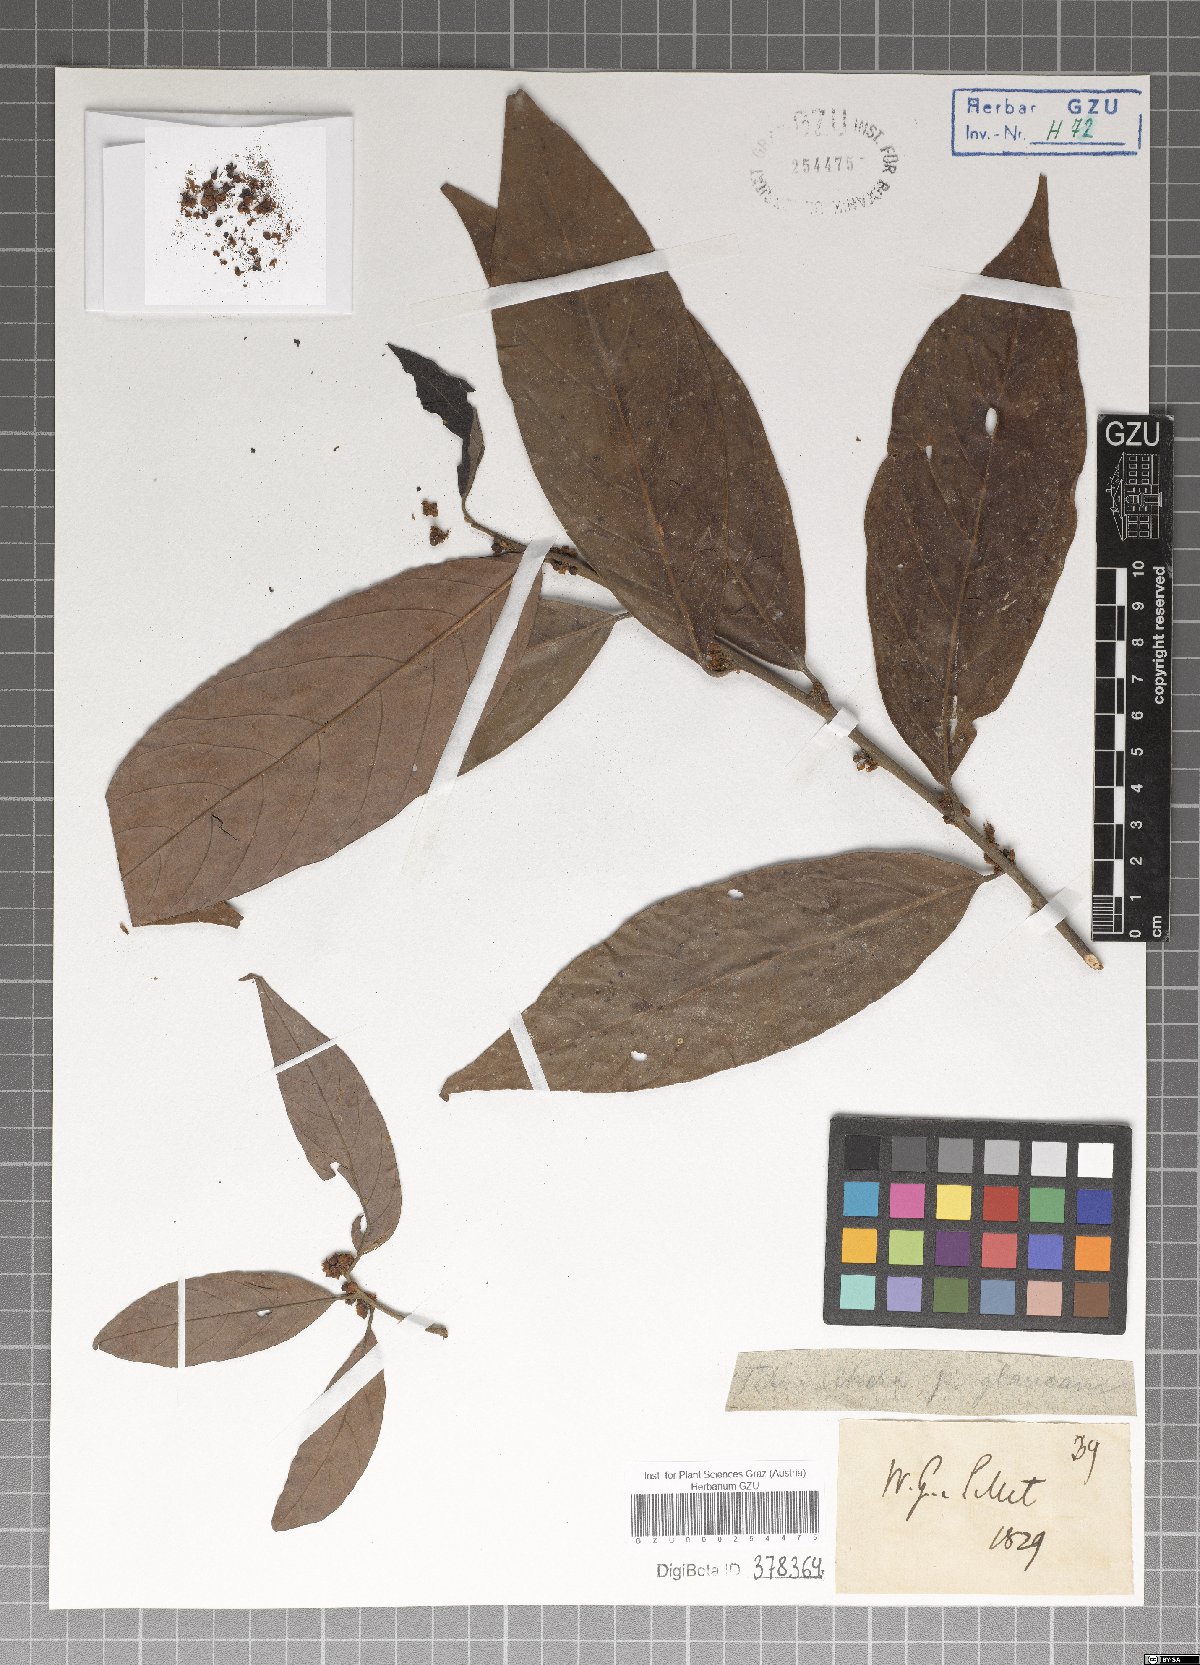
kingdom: Plantae
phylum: Tracheophyta
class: Magnoliopsida
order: Laurales
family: Lauraceae
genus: Litsea
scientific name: Litsea salicifolia
